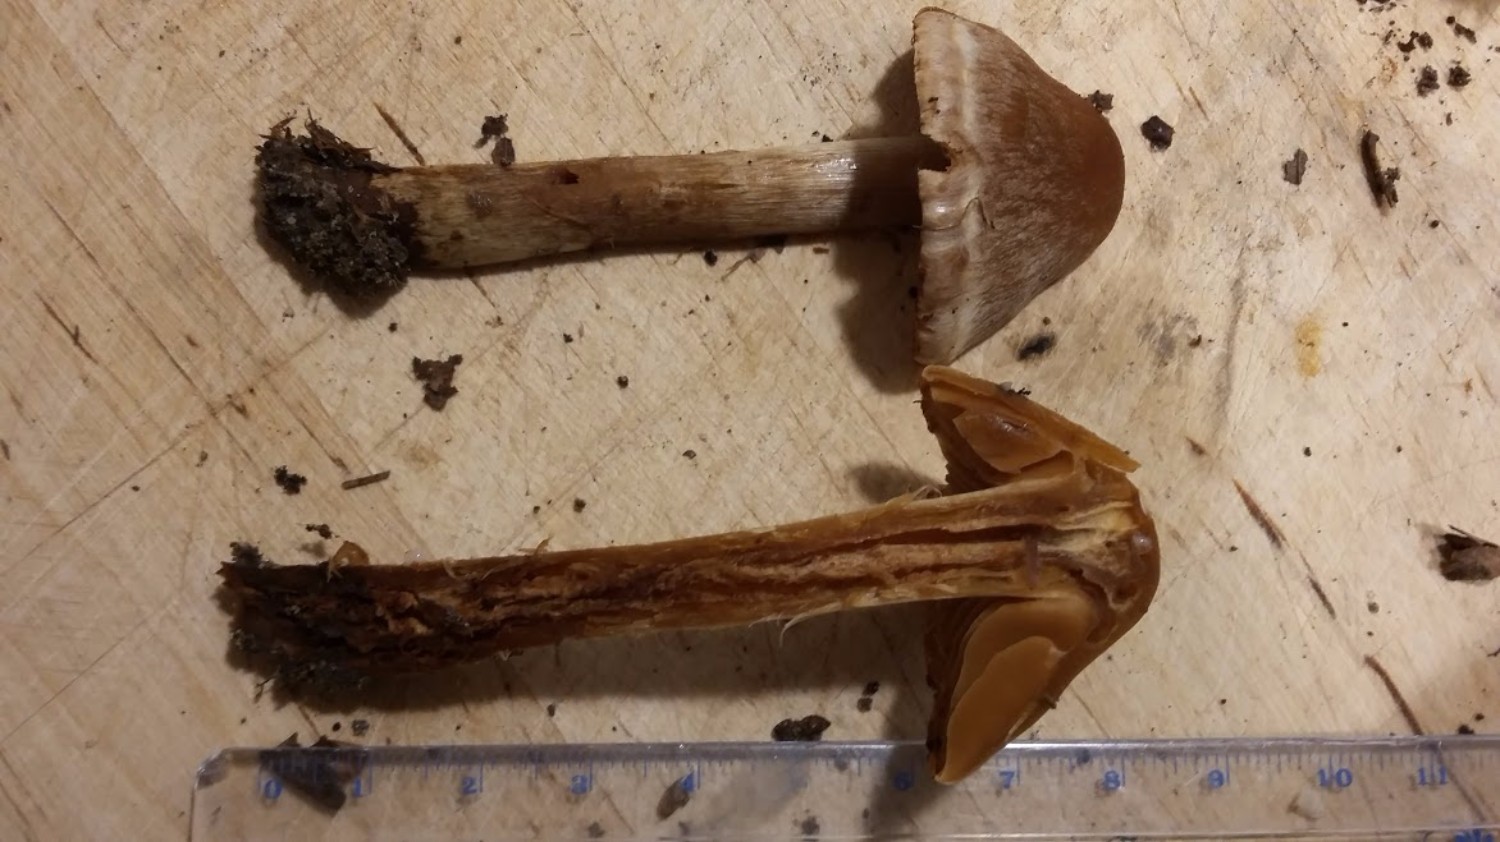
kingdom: Fungi
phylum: Basidiomycota
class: Agaricomycetes
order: Agaricales
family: Cortinariaceae
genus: Cortinarius
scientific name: Cortinarius
